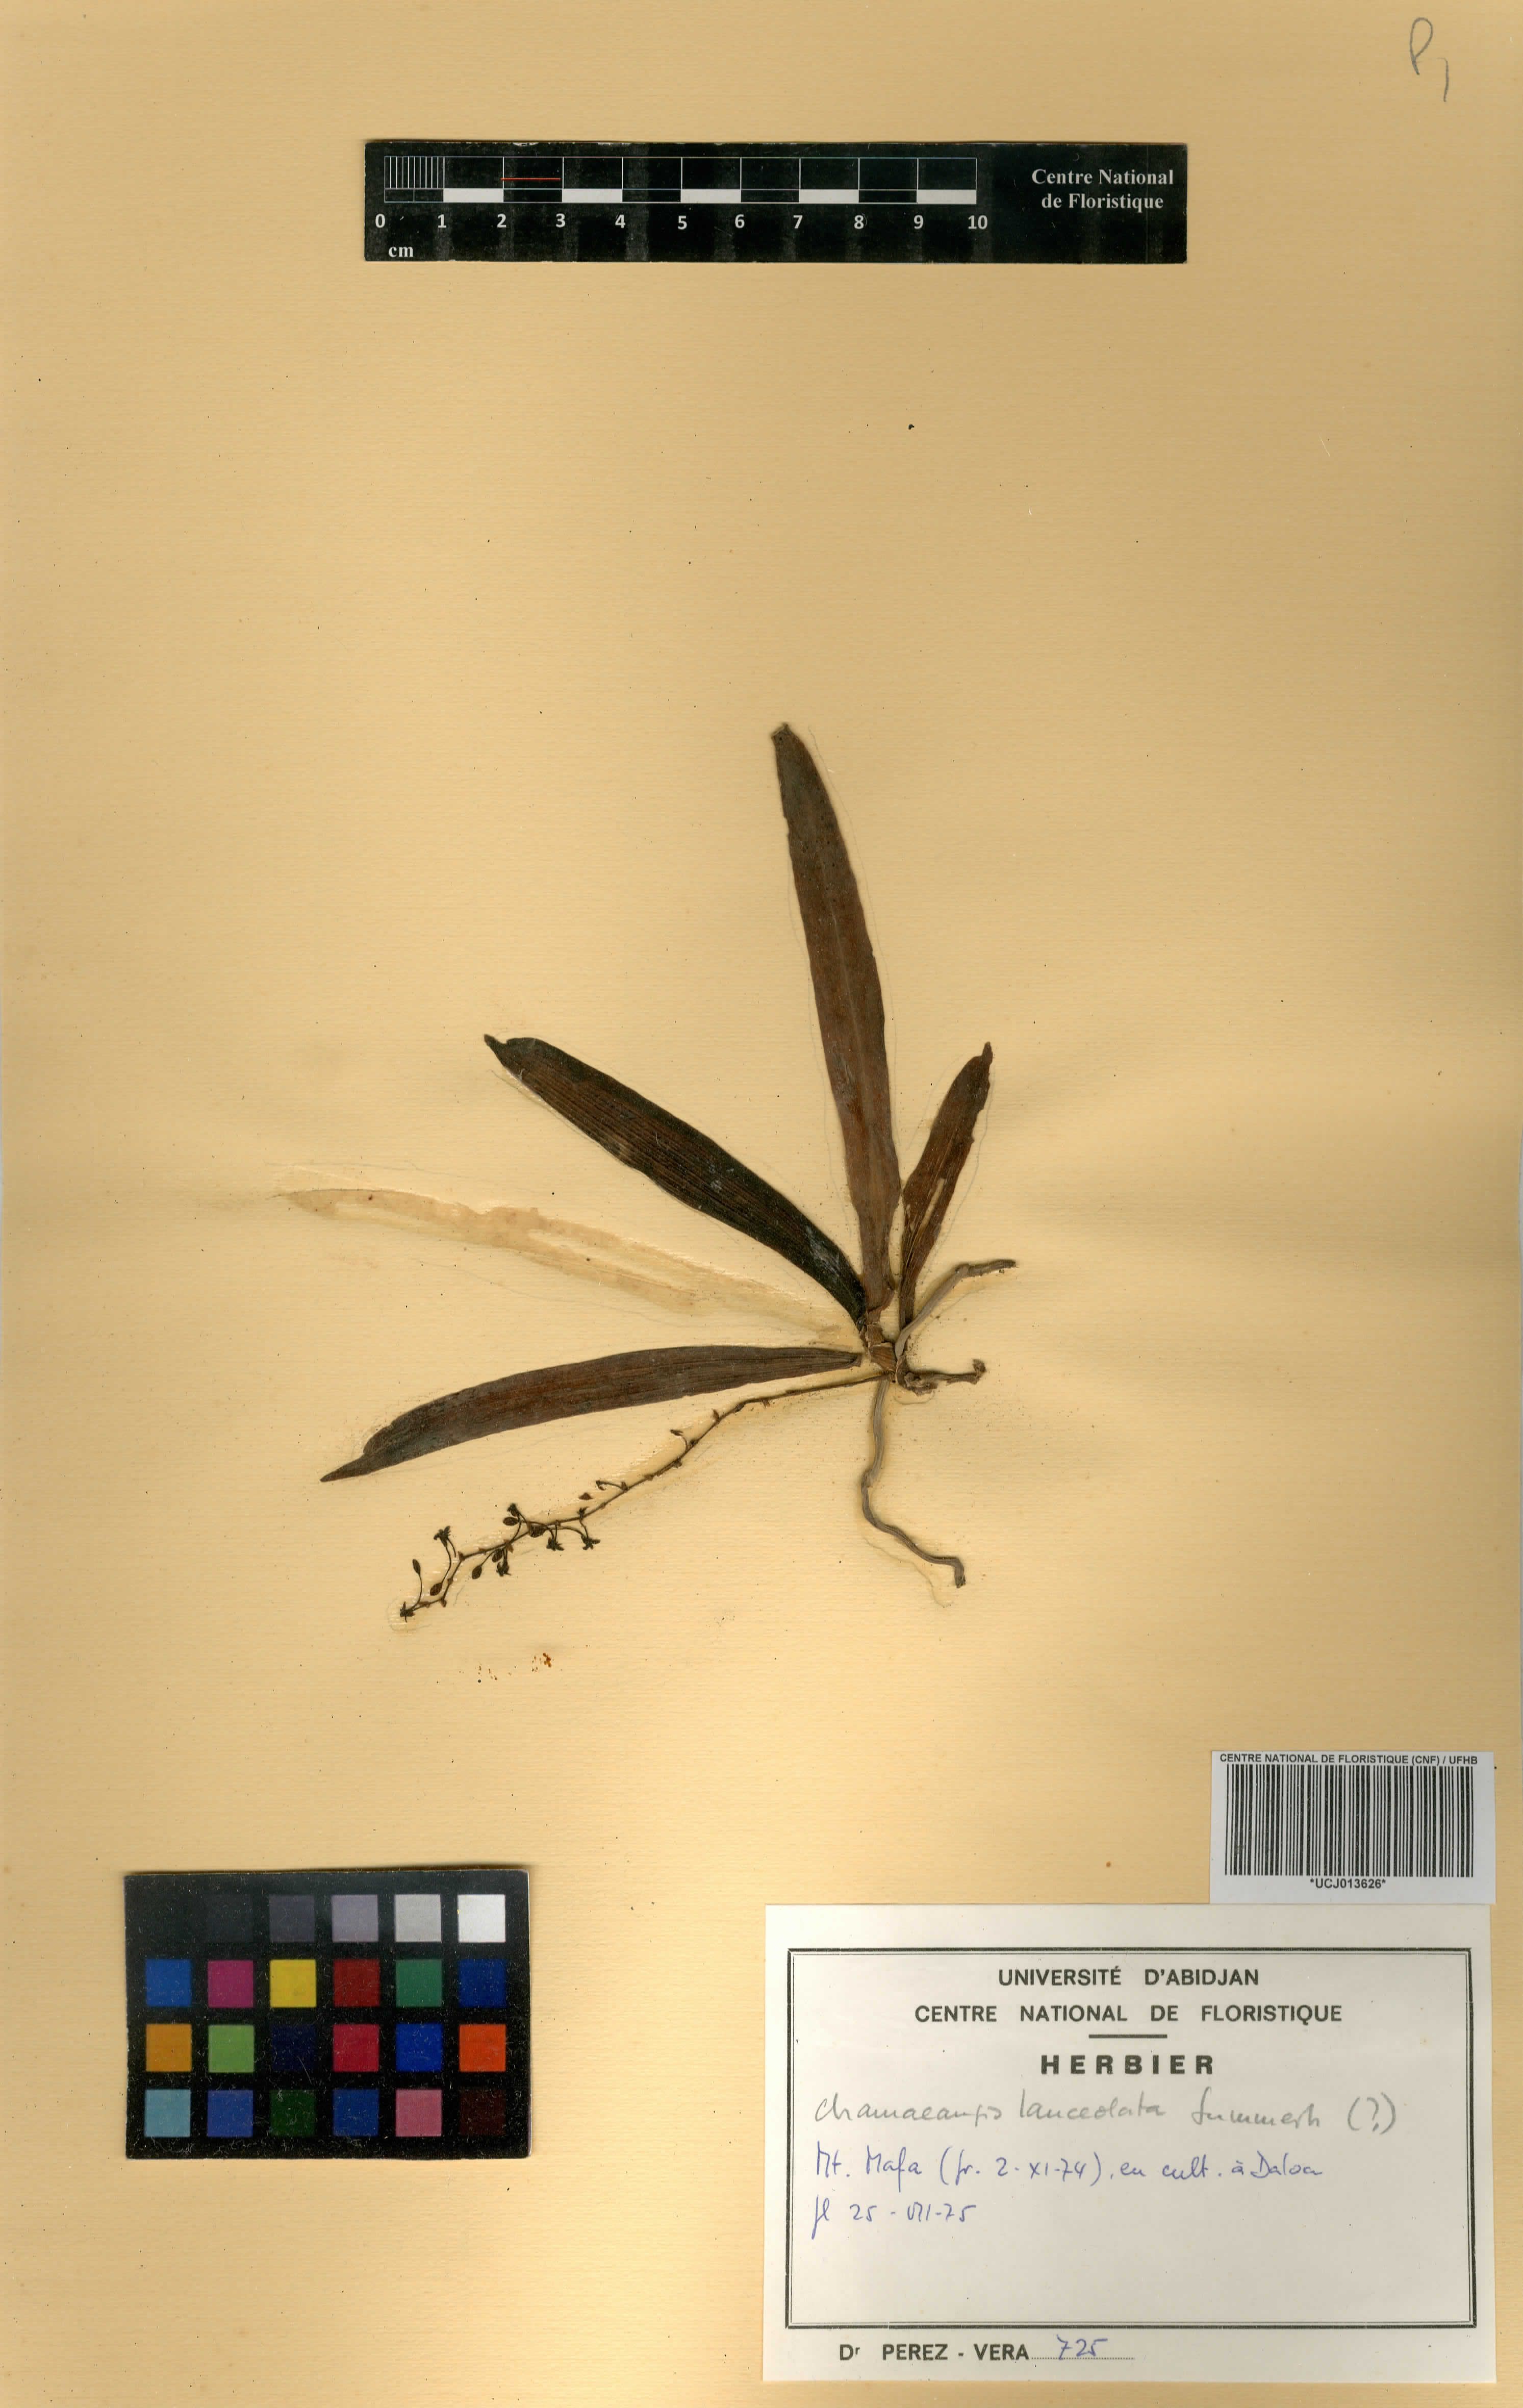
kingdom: Plantae
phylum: Tracheophyta
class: Liliopsida
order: Asparagales
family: Orchidaceae
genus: Diaphananthe
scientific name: Diaphananthe lanceolata
